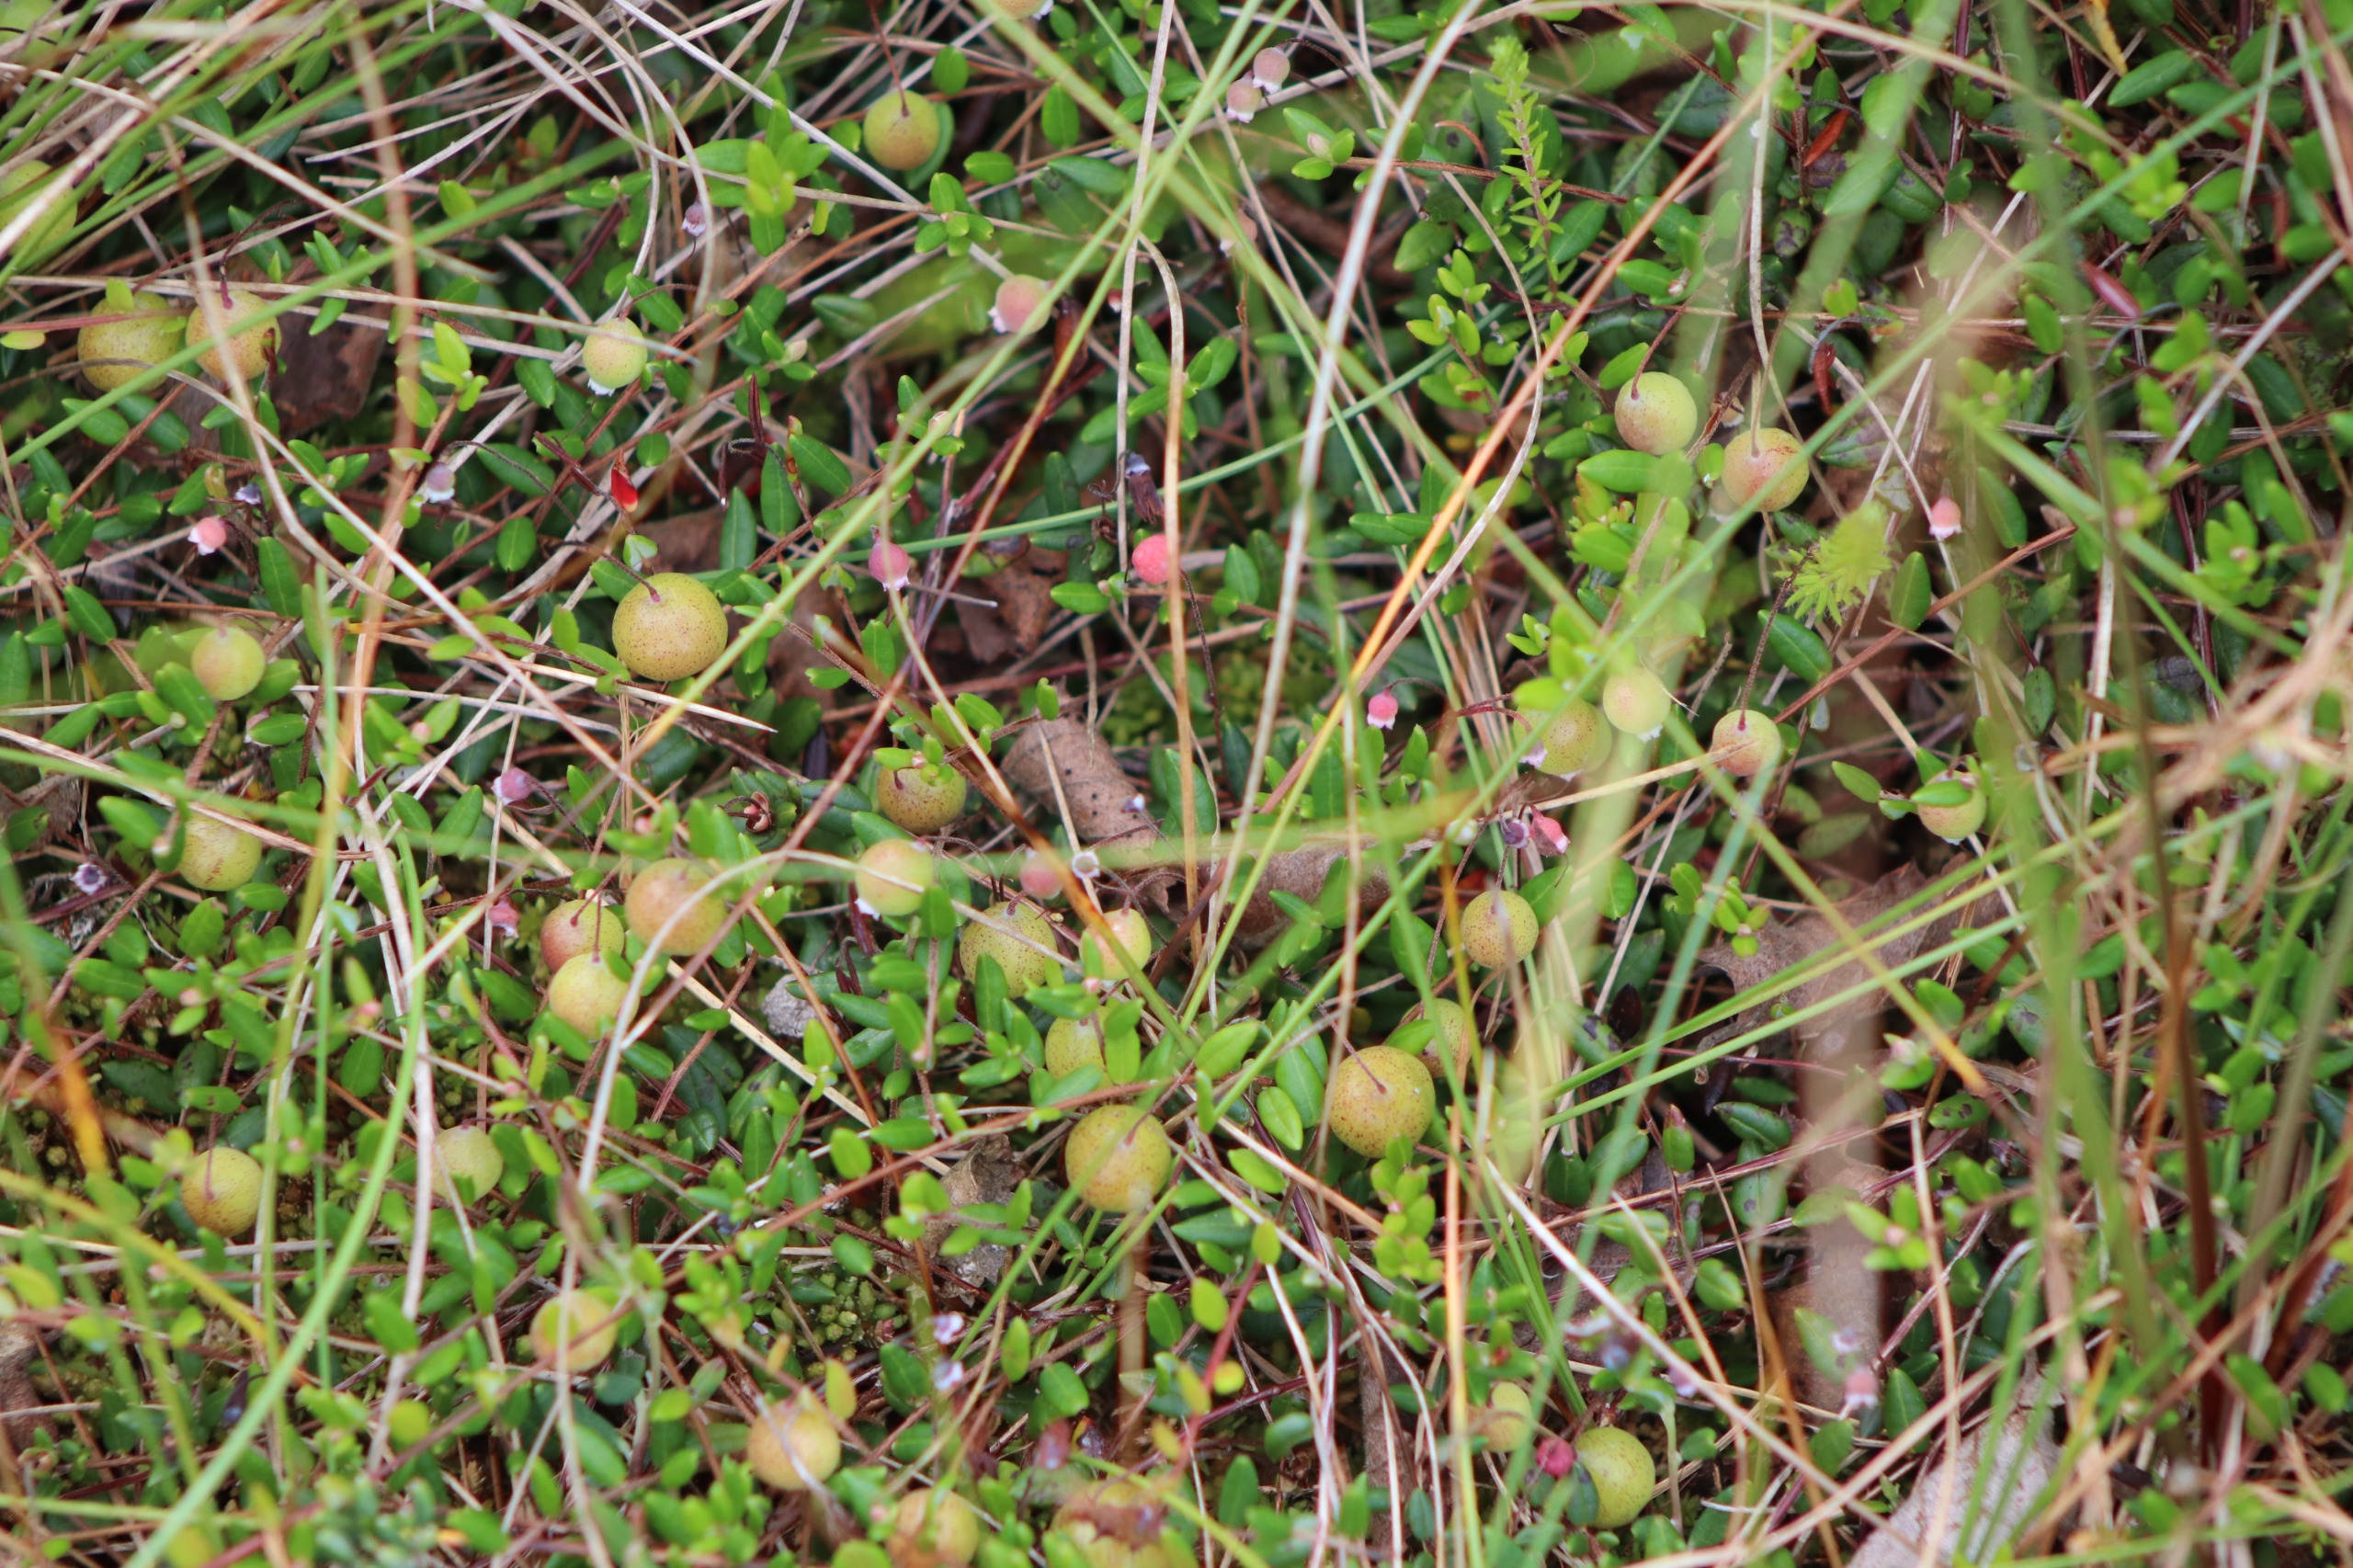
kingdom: Plantae
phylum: Tracheophyta
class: Magnoliopsida
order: Ericales
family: Ericaceae
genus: Vaccinium
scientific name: Vaccinium oxycoccos
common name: Tranebær
